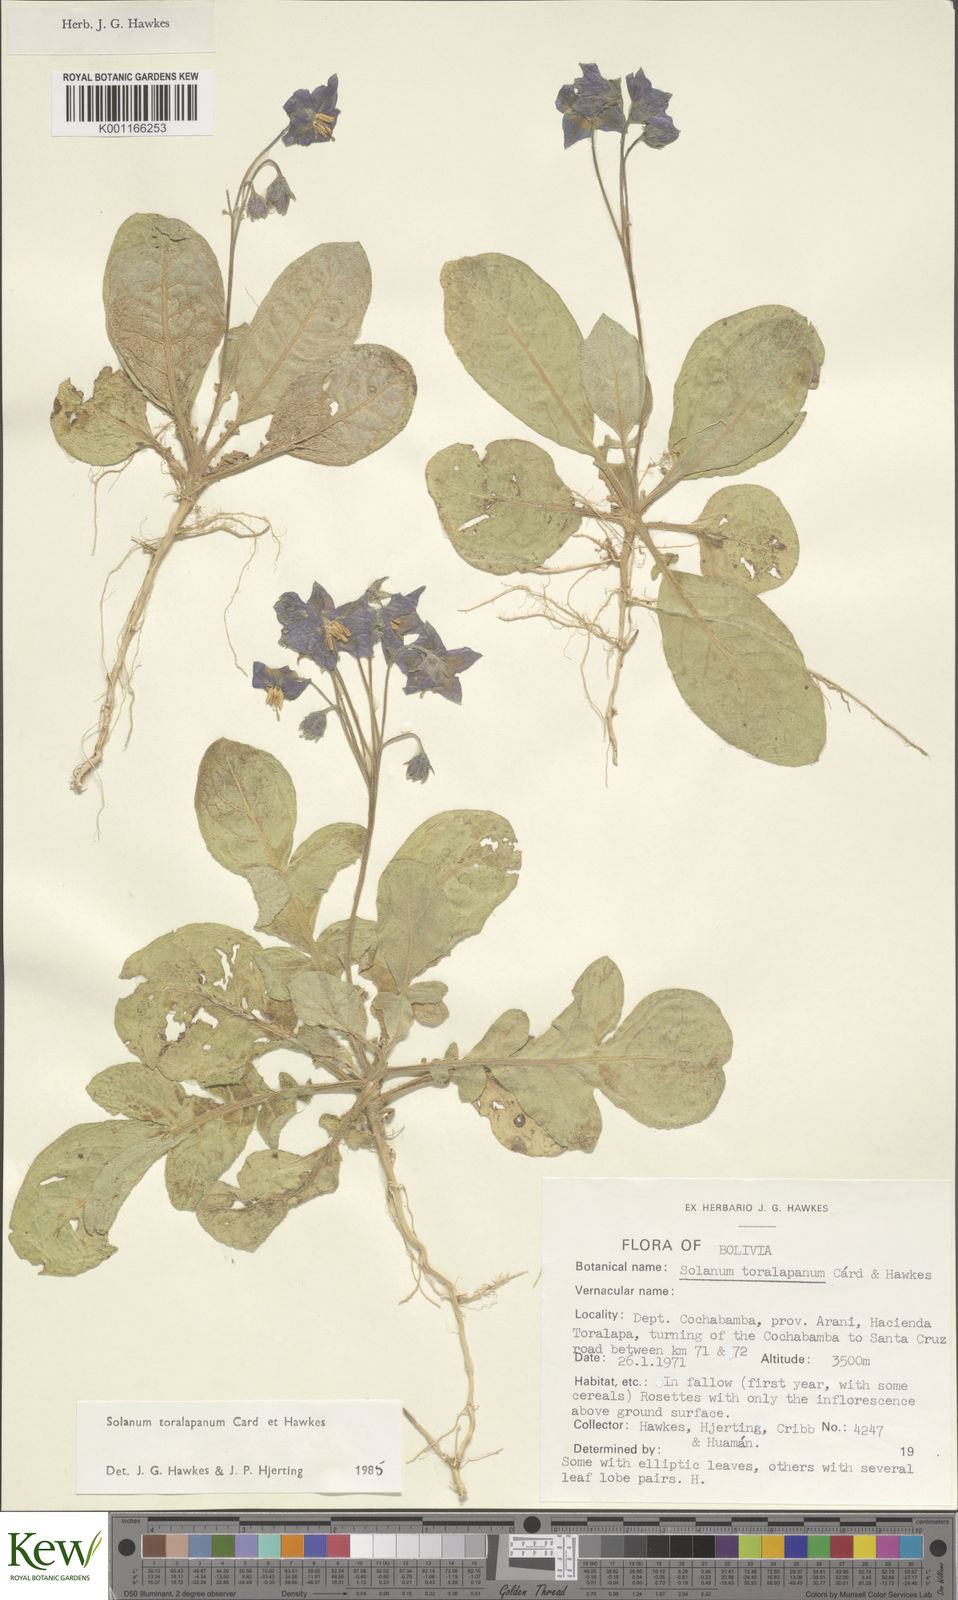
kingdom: Plantae
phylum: Tracheophyta
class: Magnoliopsida
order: Solanales
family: Solanaceae
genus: Solanum
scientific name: Solanum boliviense
